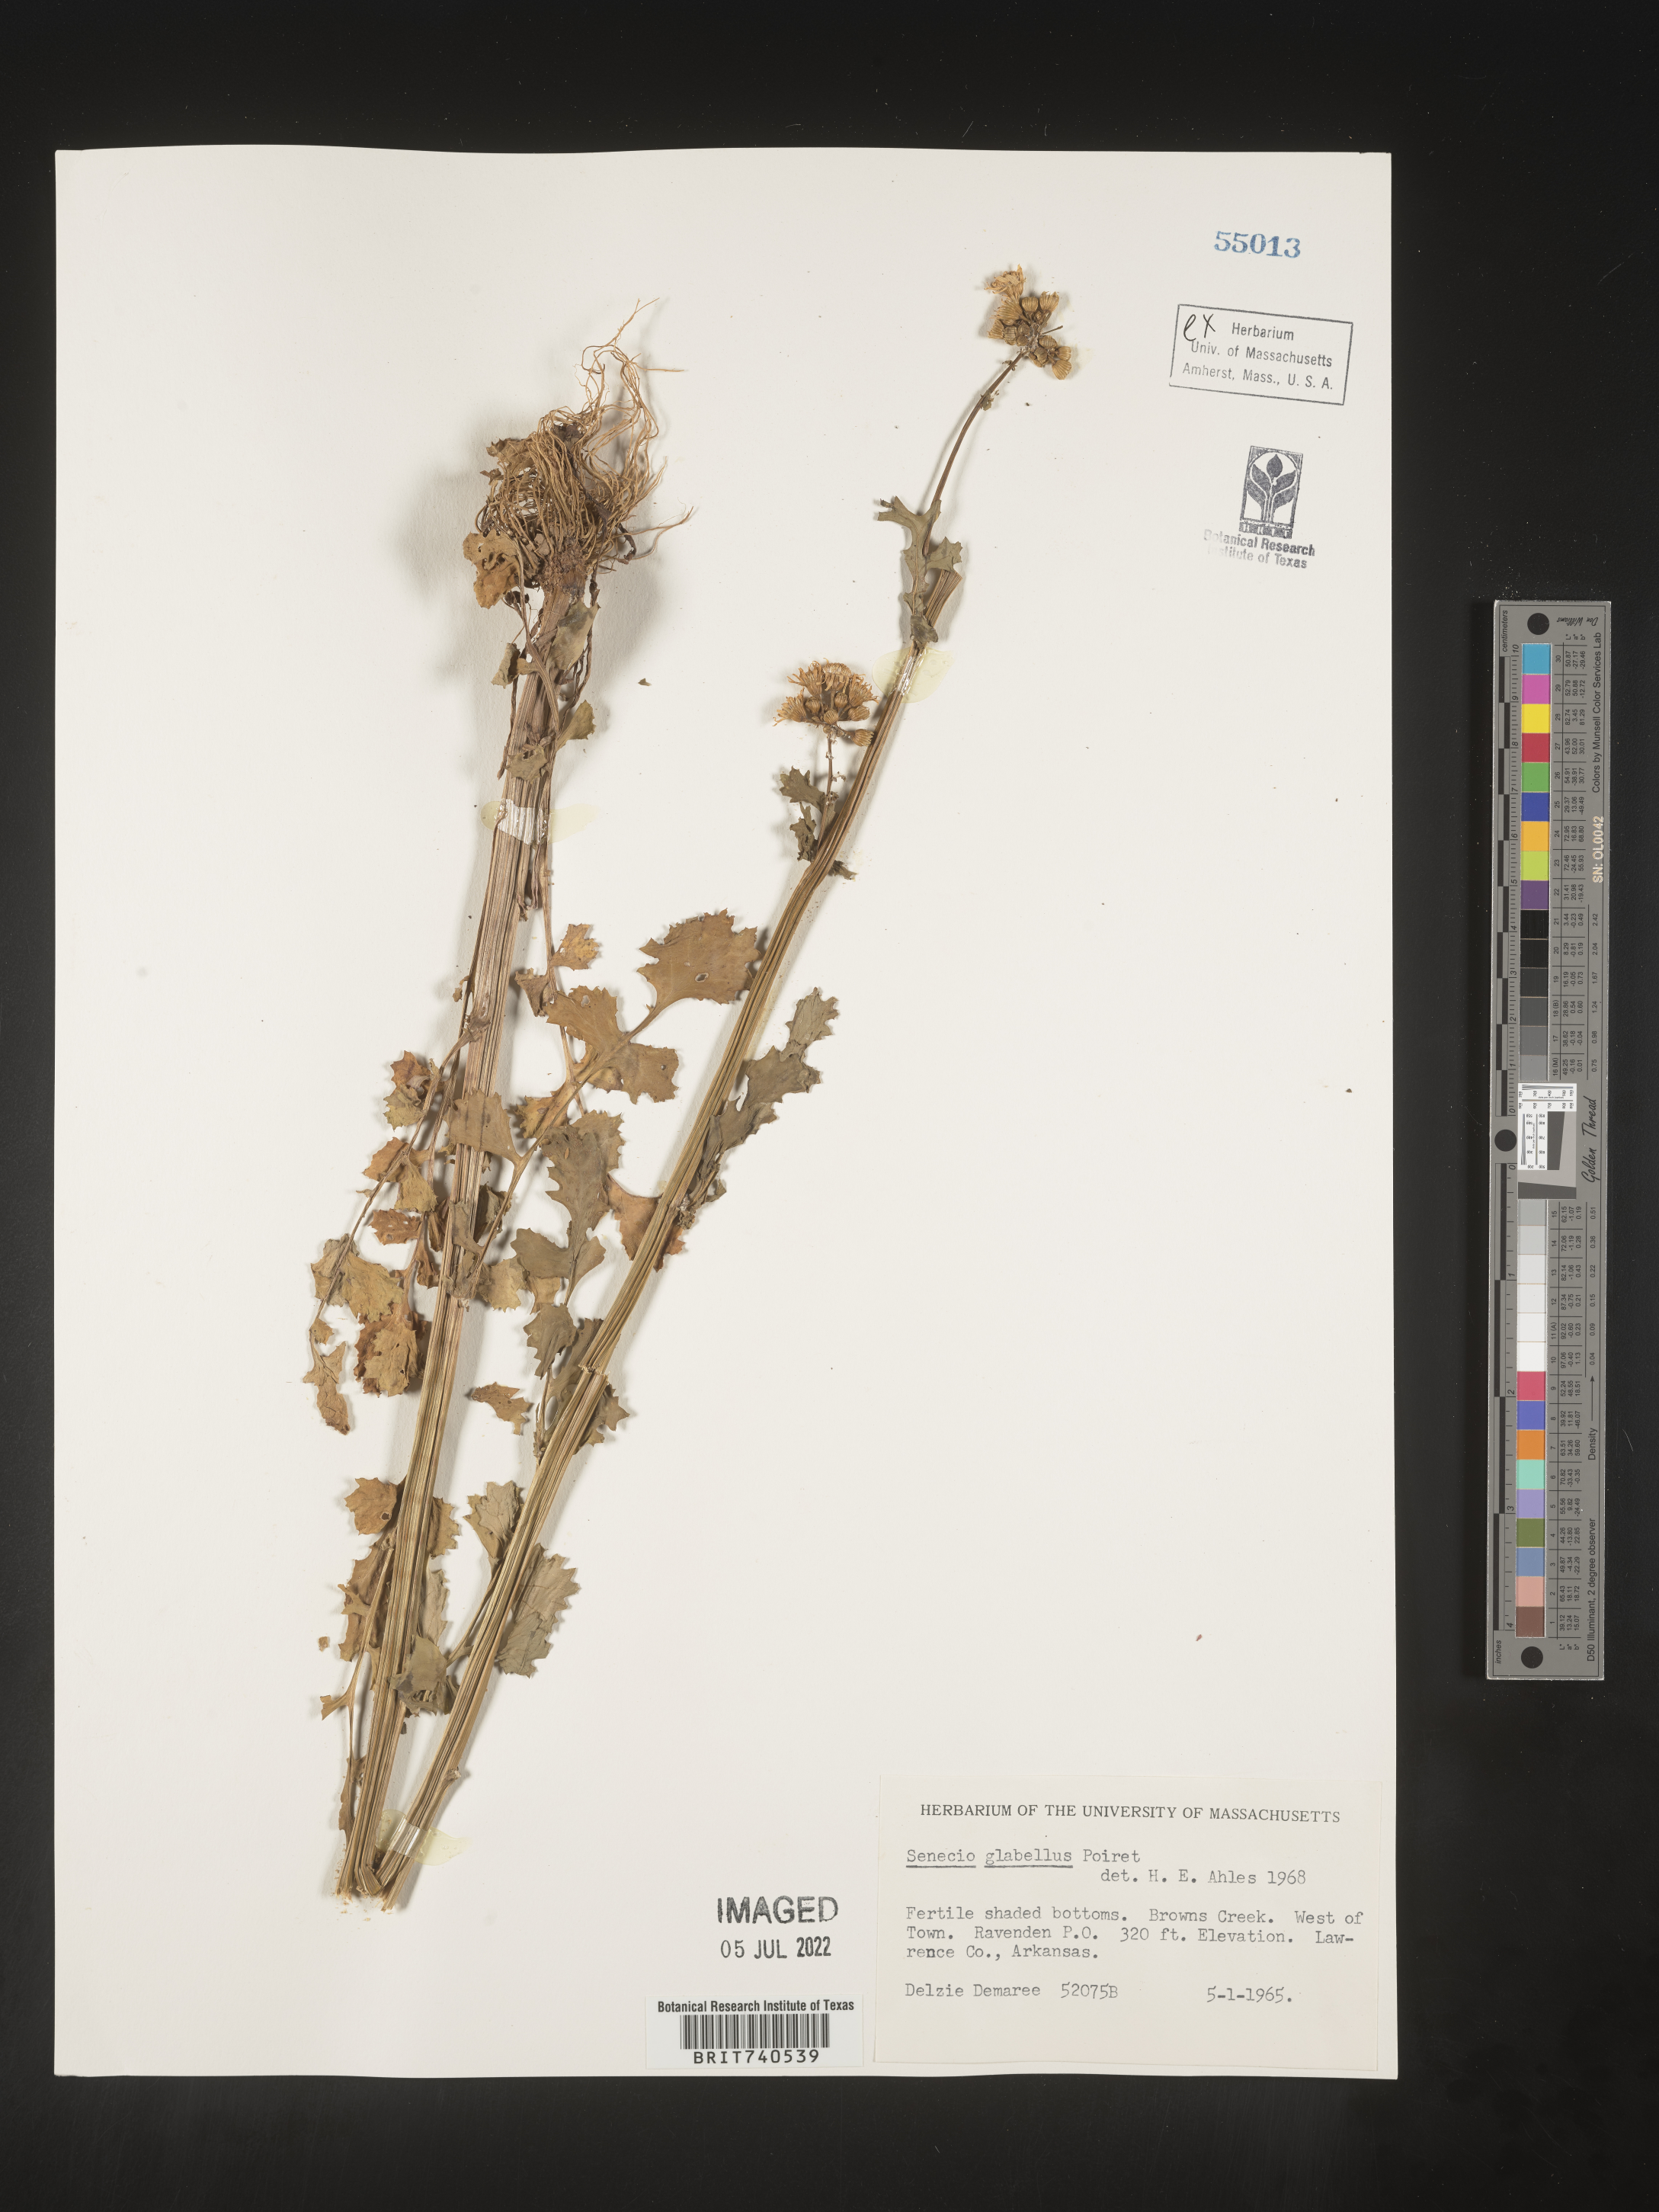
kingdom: Plantae
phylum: Tracheophyta
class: Magnoliopsida
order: Asterales
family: Asteraceae
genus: Tephroseris
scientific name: Tephroseris praticola
